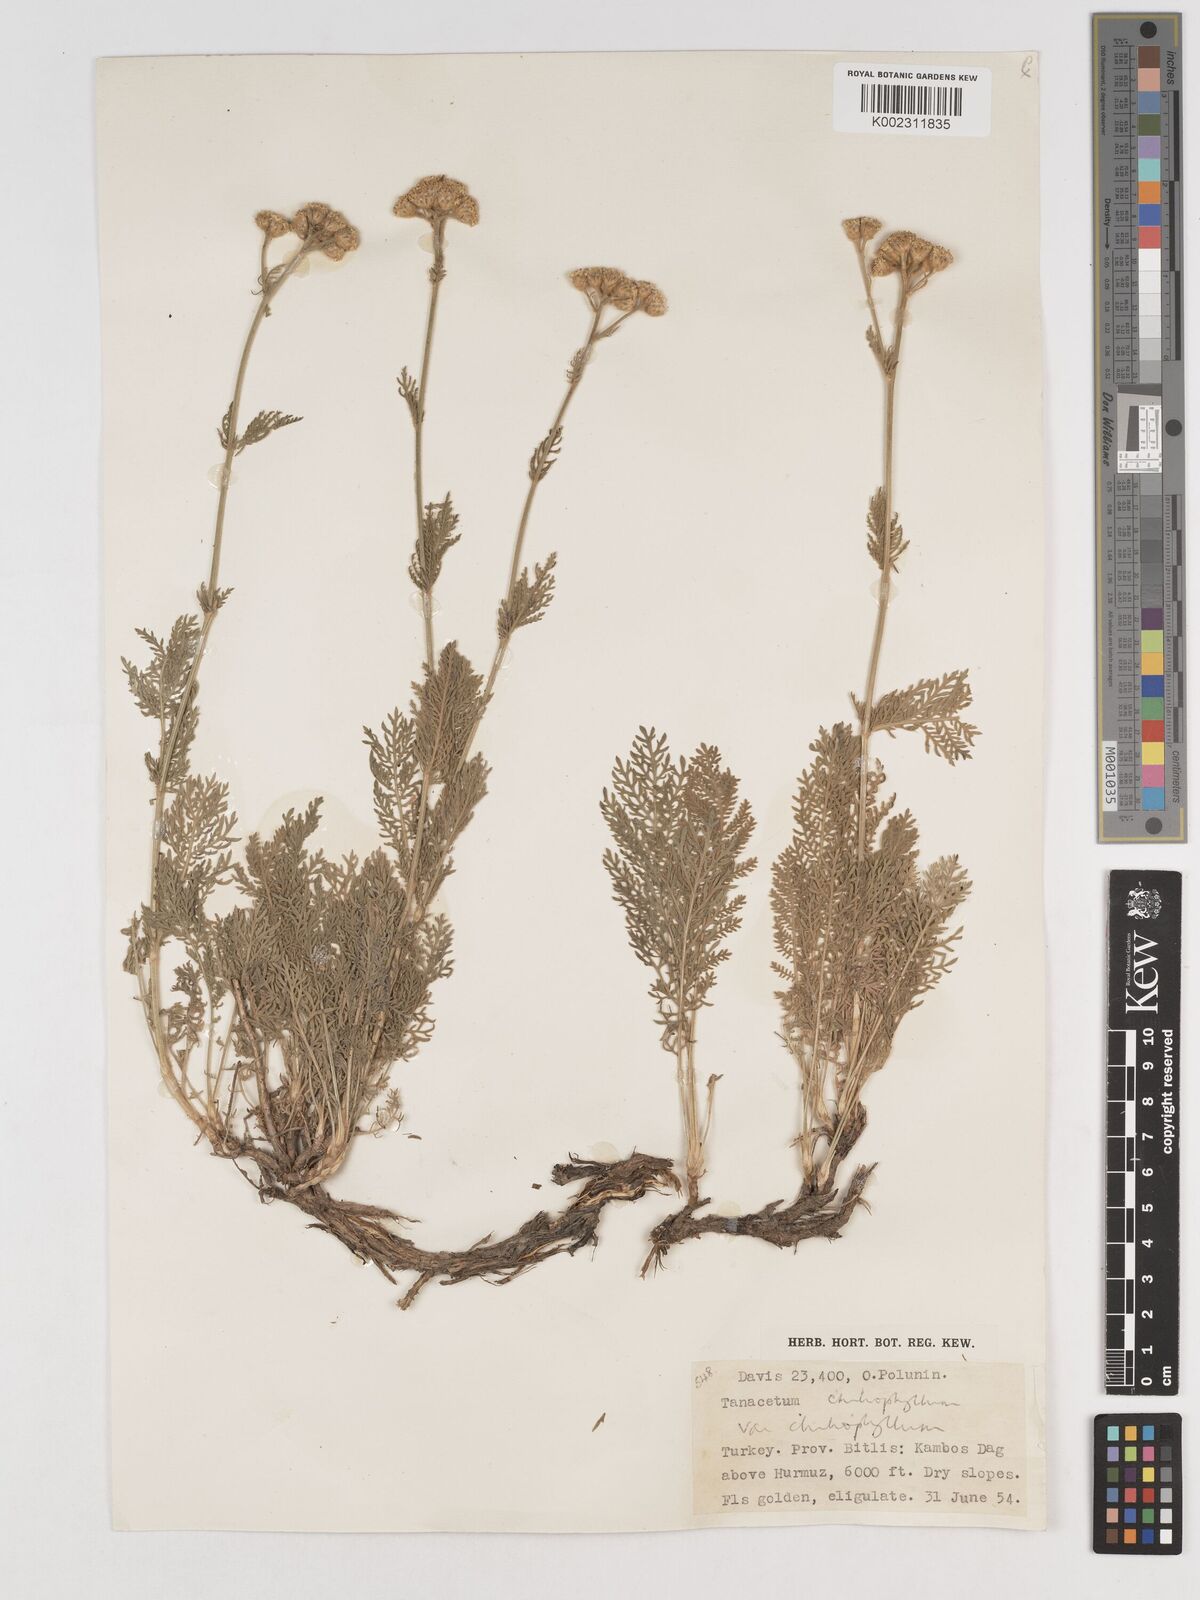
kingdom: Plantae
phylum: Tracheophyta
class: Magnoliopsida
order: Asterales
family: Asteraceae
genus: Tanacetum
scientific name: Tanacetum aureum
